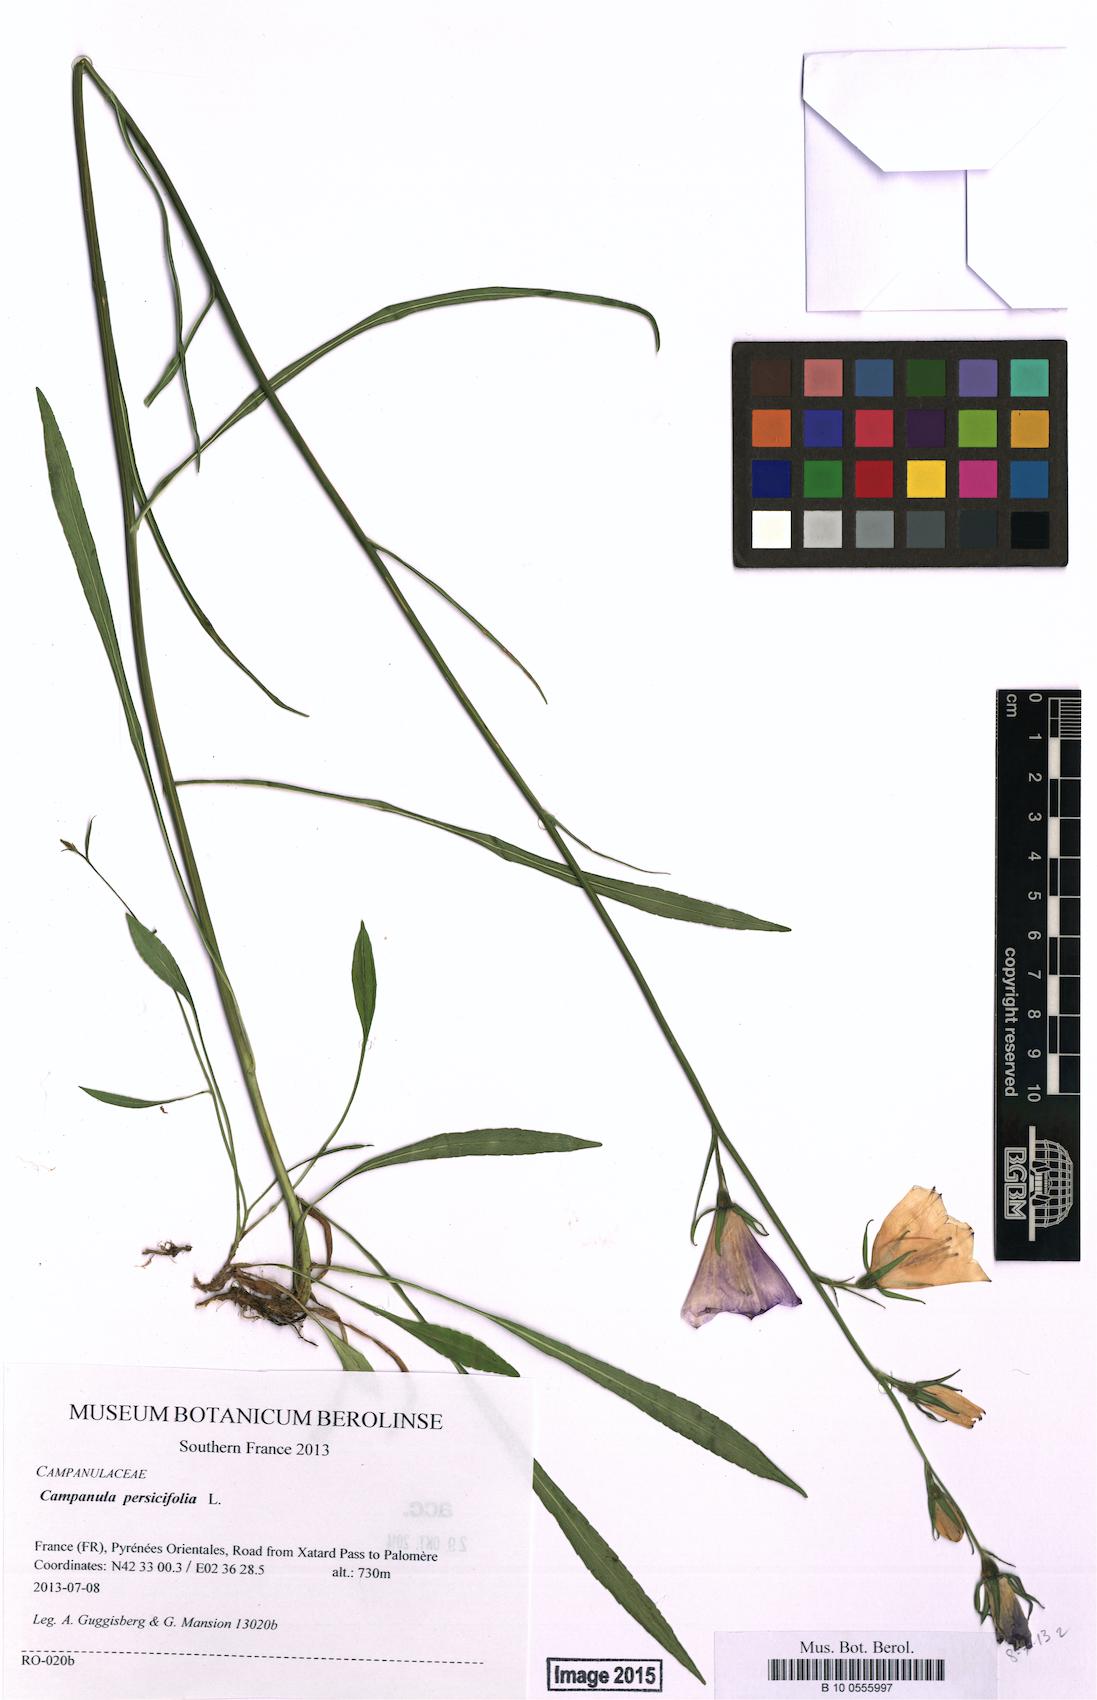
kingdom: Plantae
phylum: Tracheophyta
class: Magnoliopsida
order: Asterales
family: Campanulaceae
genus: Campanula
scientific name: Campanula persicifolia
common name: Peach-leaved bellflower
